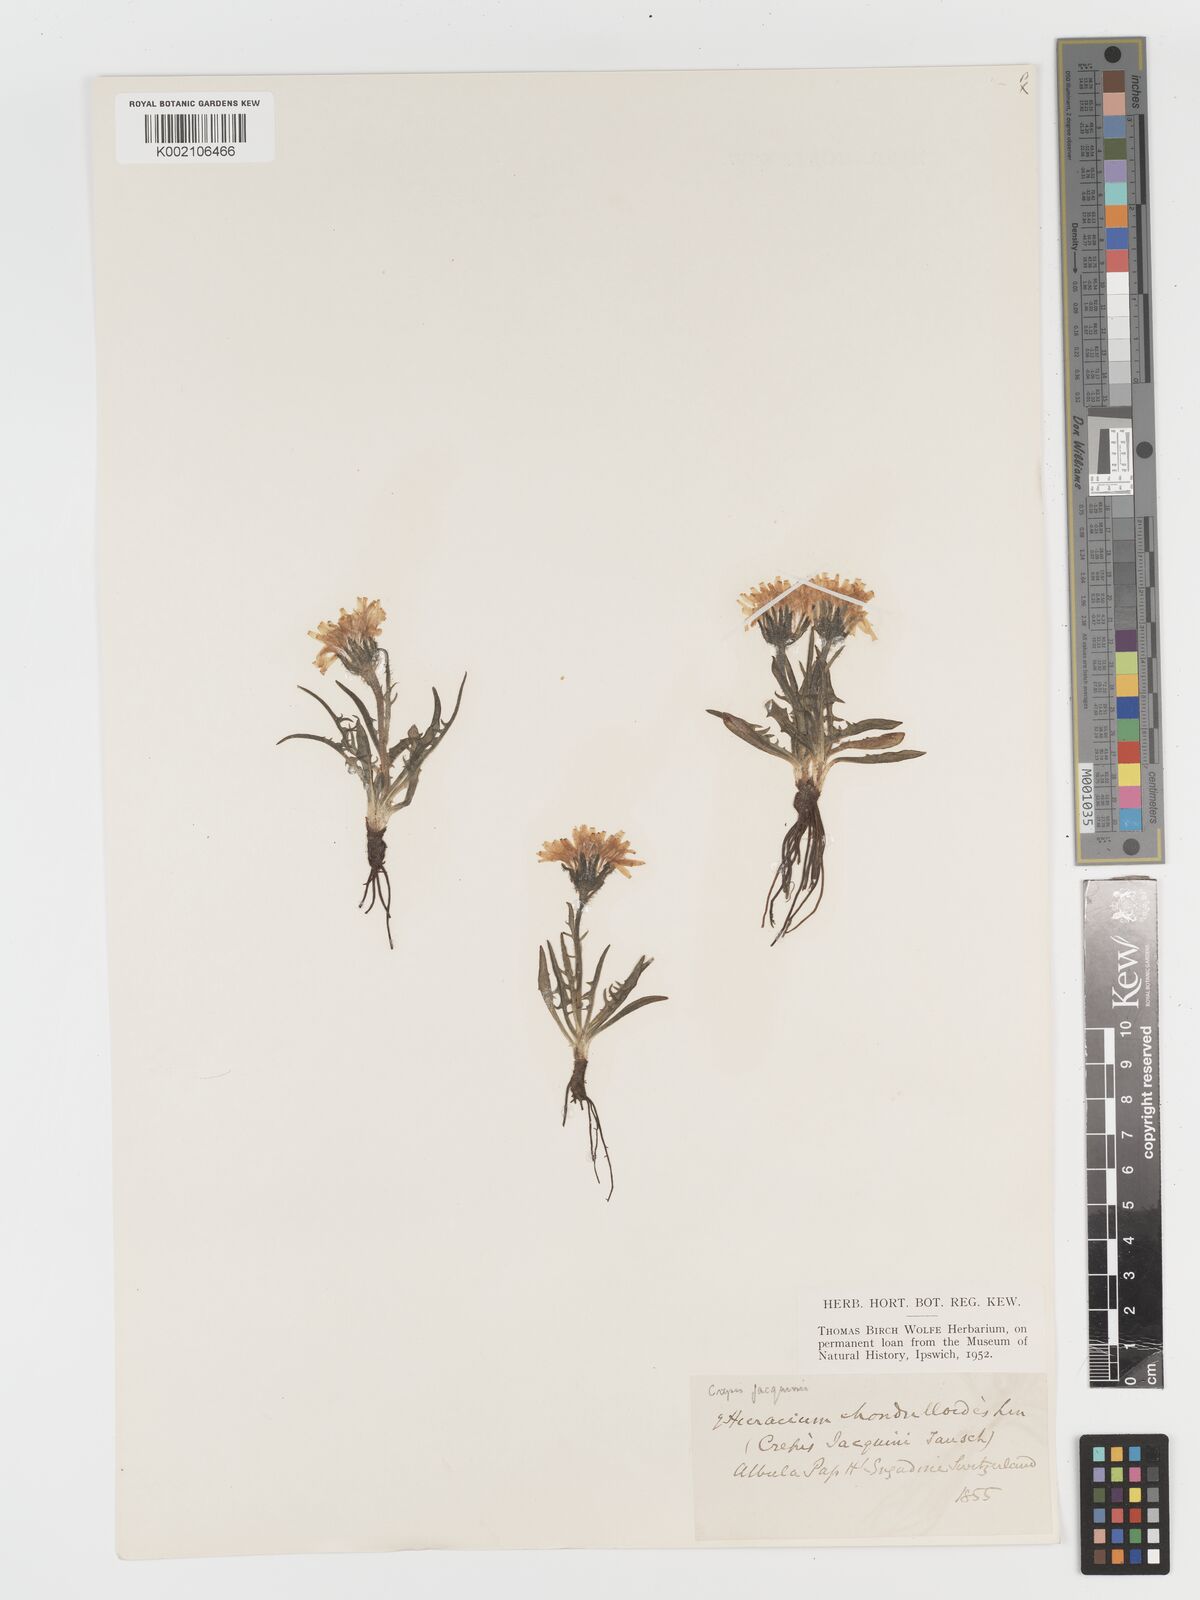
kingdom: Plantae
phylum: Tracheophyta
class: Magnoliopsida
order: Asterales
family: Asteraceae
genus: Crepis
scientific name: Crepis jacquinii
